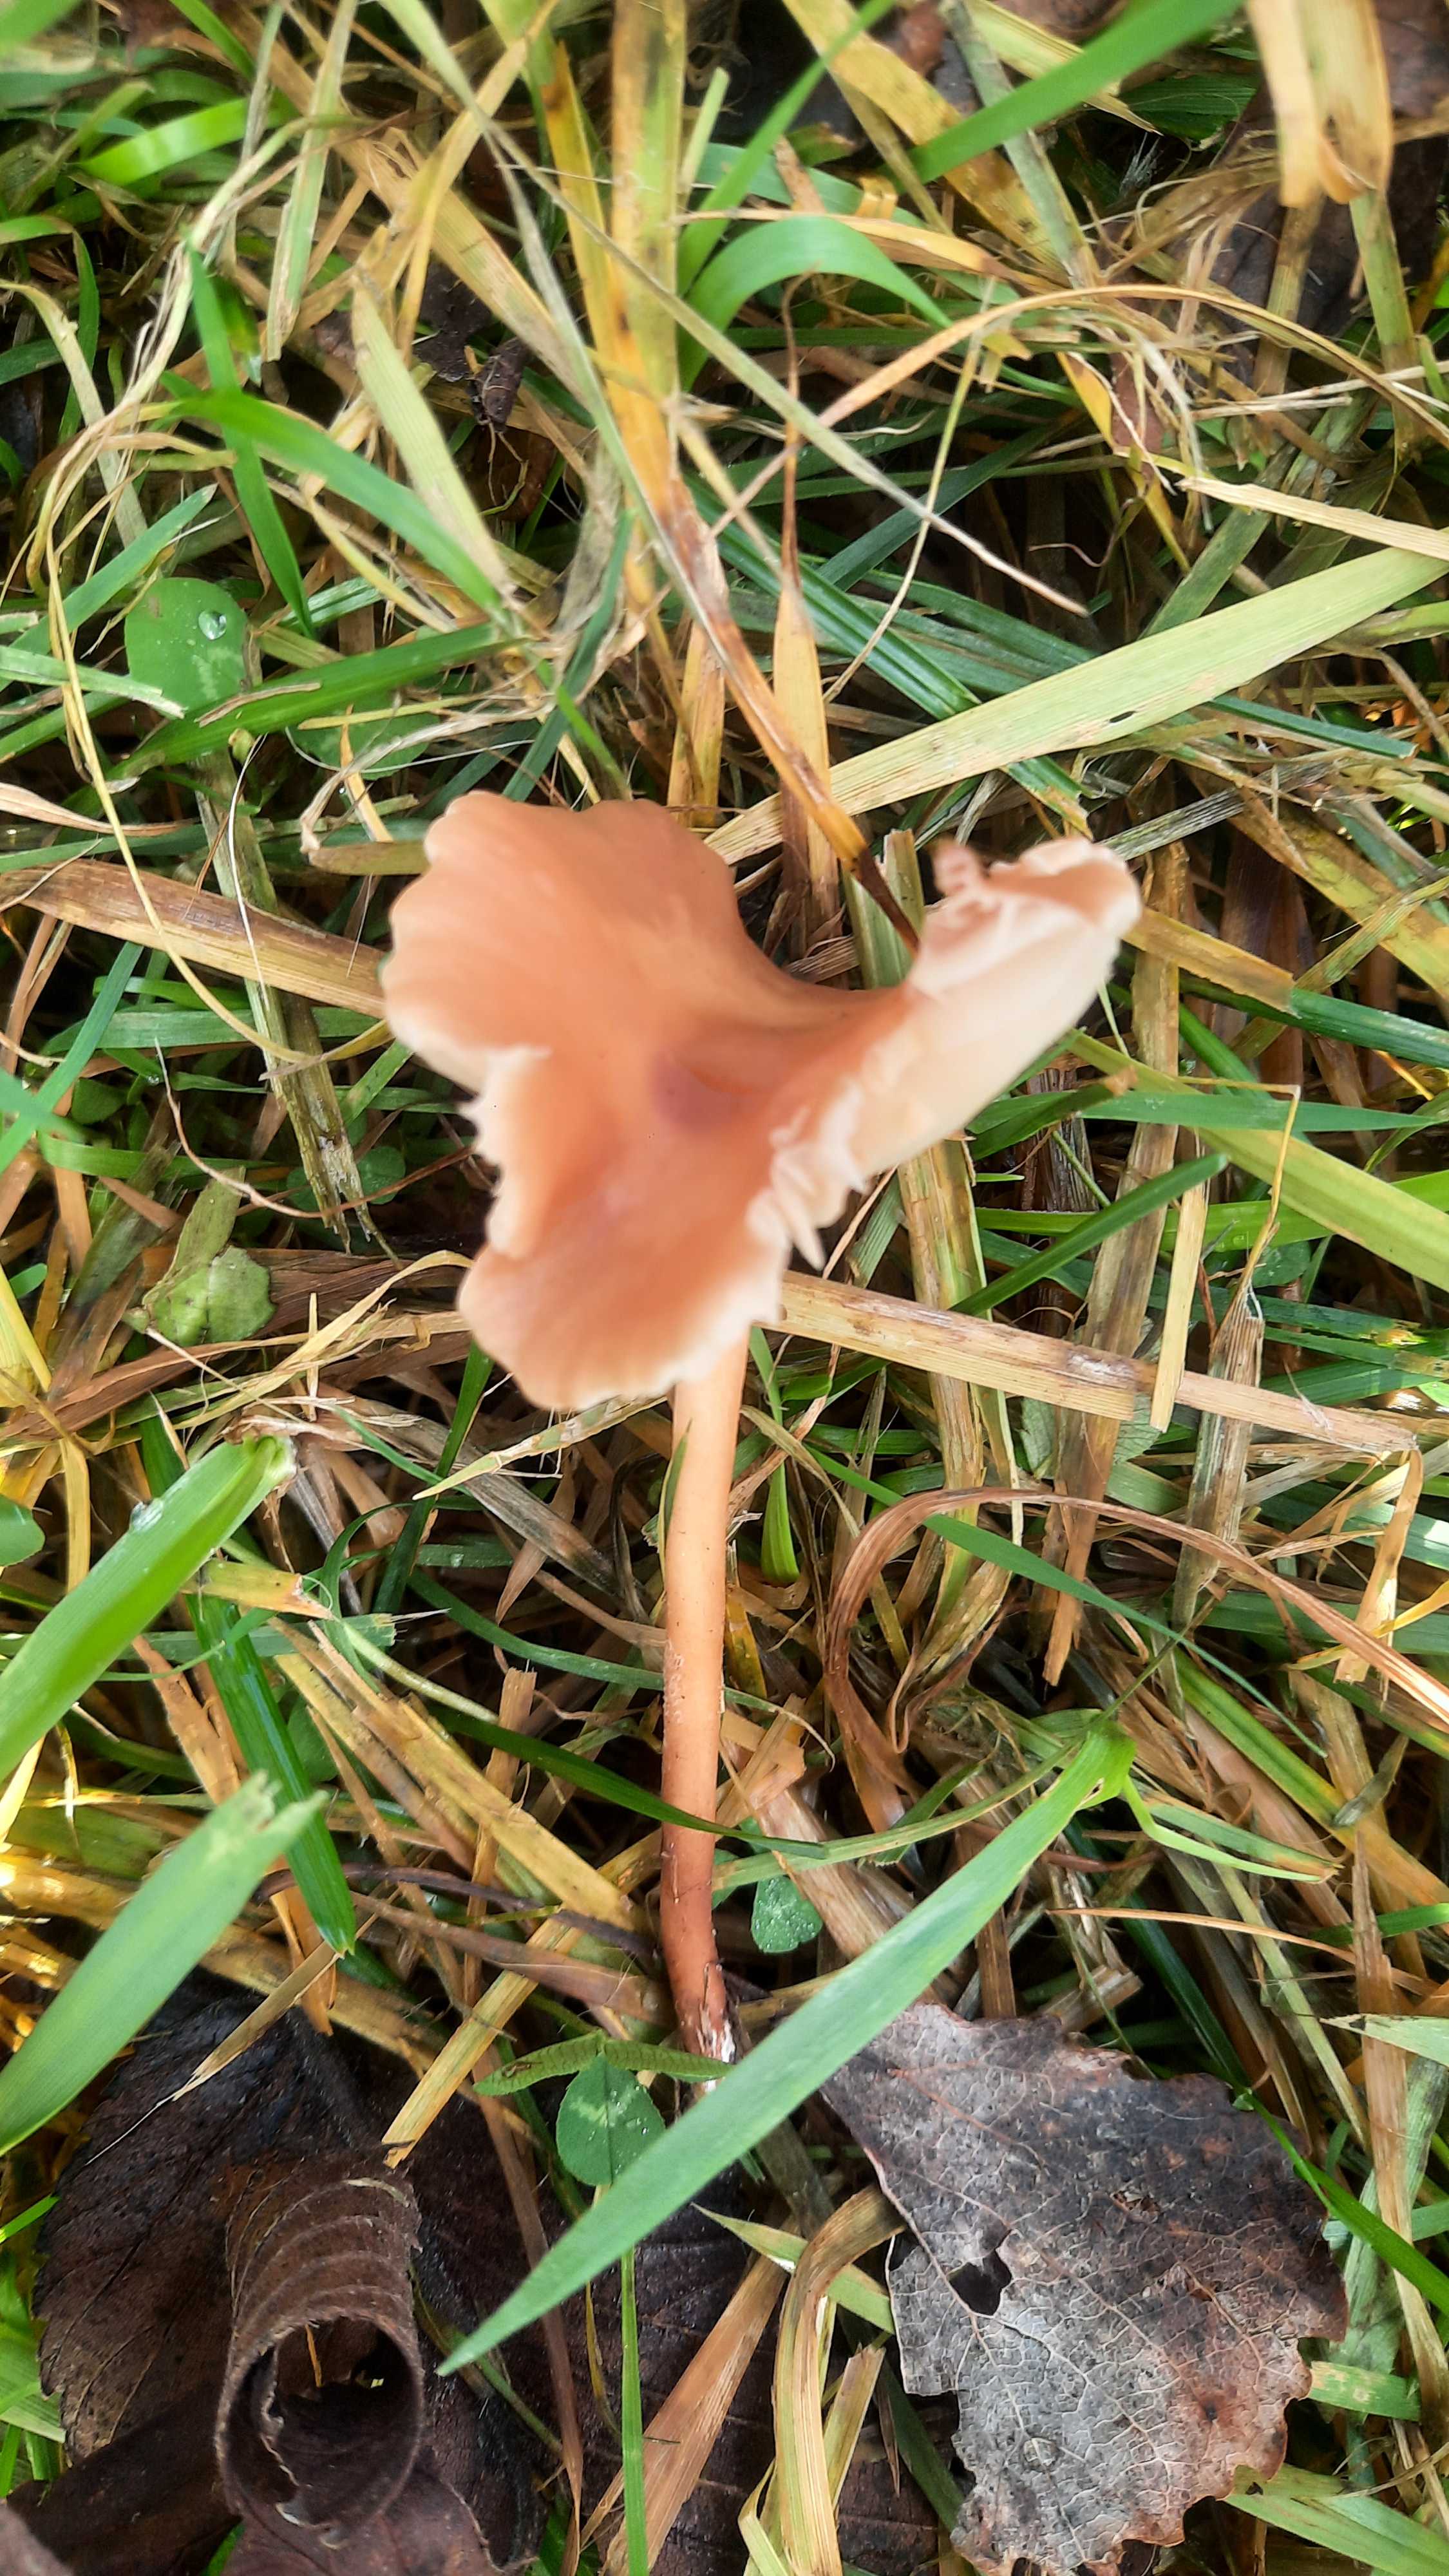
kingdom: Fungi
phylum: Basidiomycota
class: Agaricomycetes
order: Agaricales
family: Marasmiaceae
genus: Marasmius
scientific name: Marasmius oreades
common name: elledans-bruskhat
